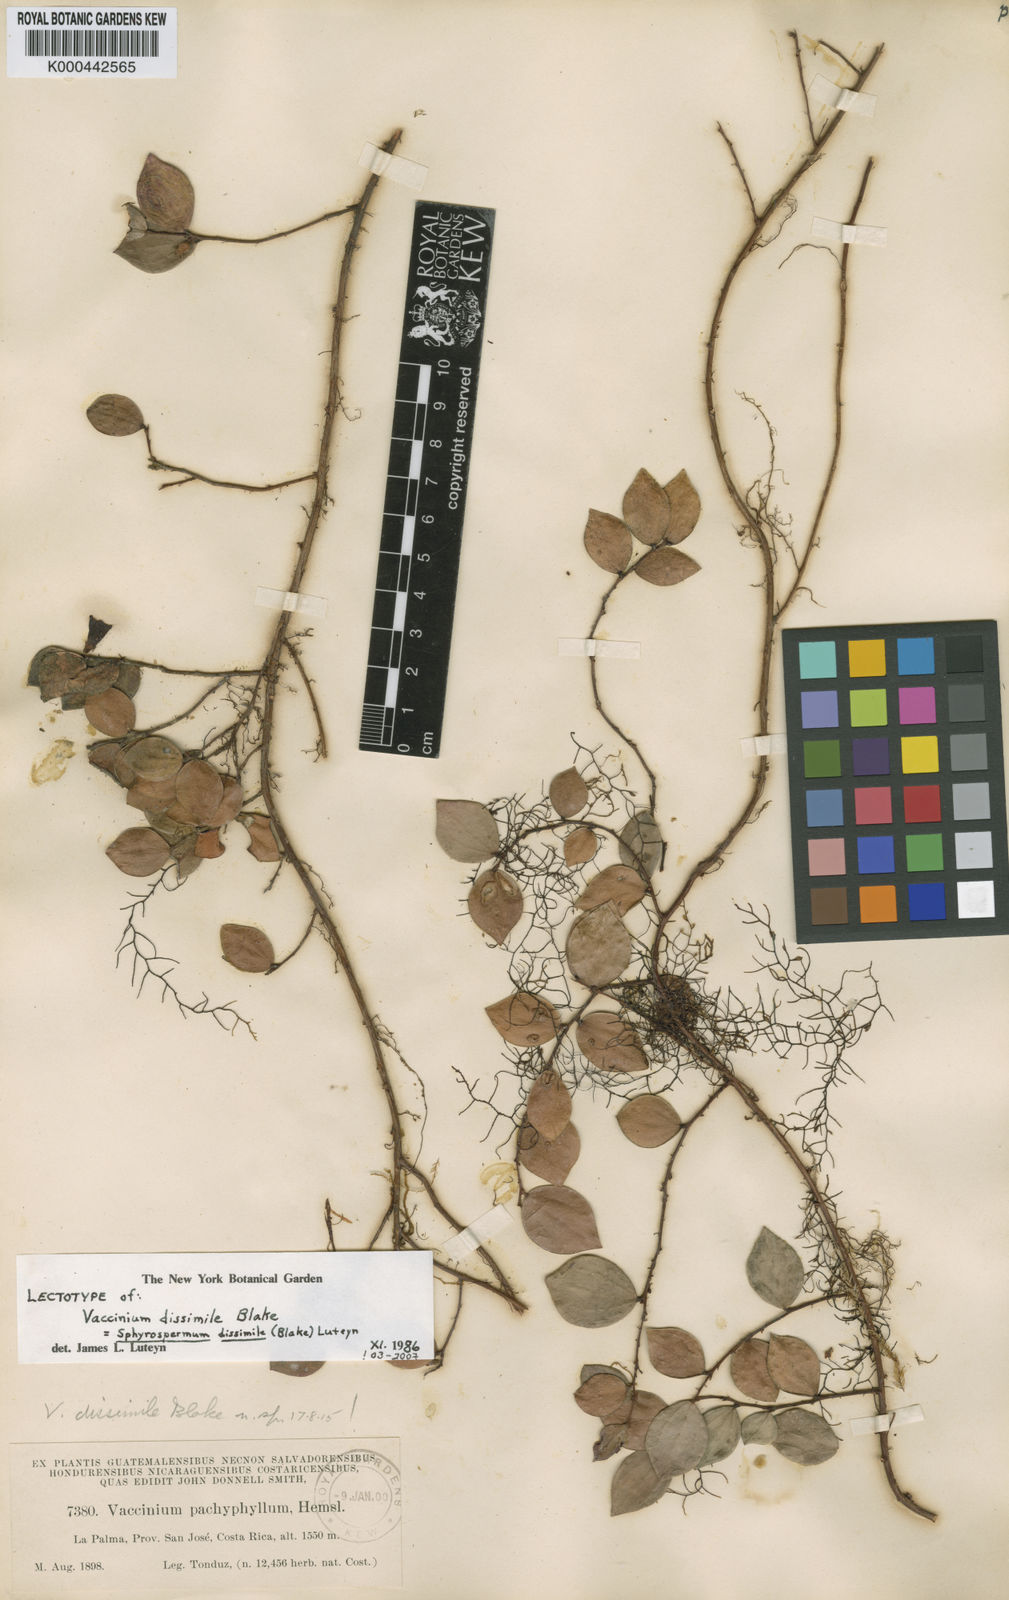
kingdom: Plantae
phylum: Tracheophyta
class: Magnoliopsida
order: Ericales
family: Ericaceae
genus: Sphyrospermum
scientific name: Sphyrospermum dissimile
